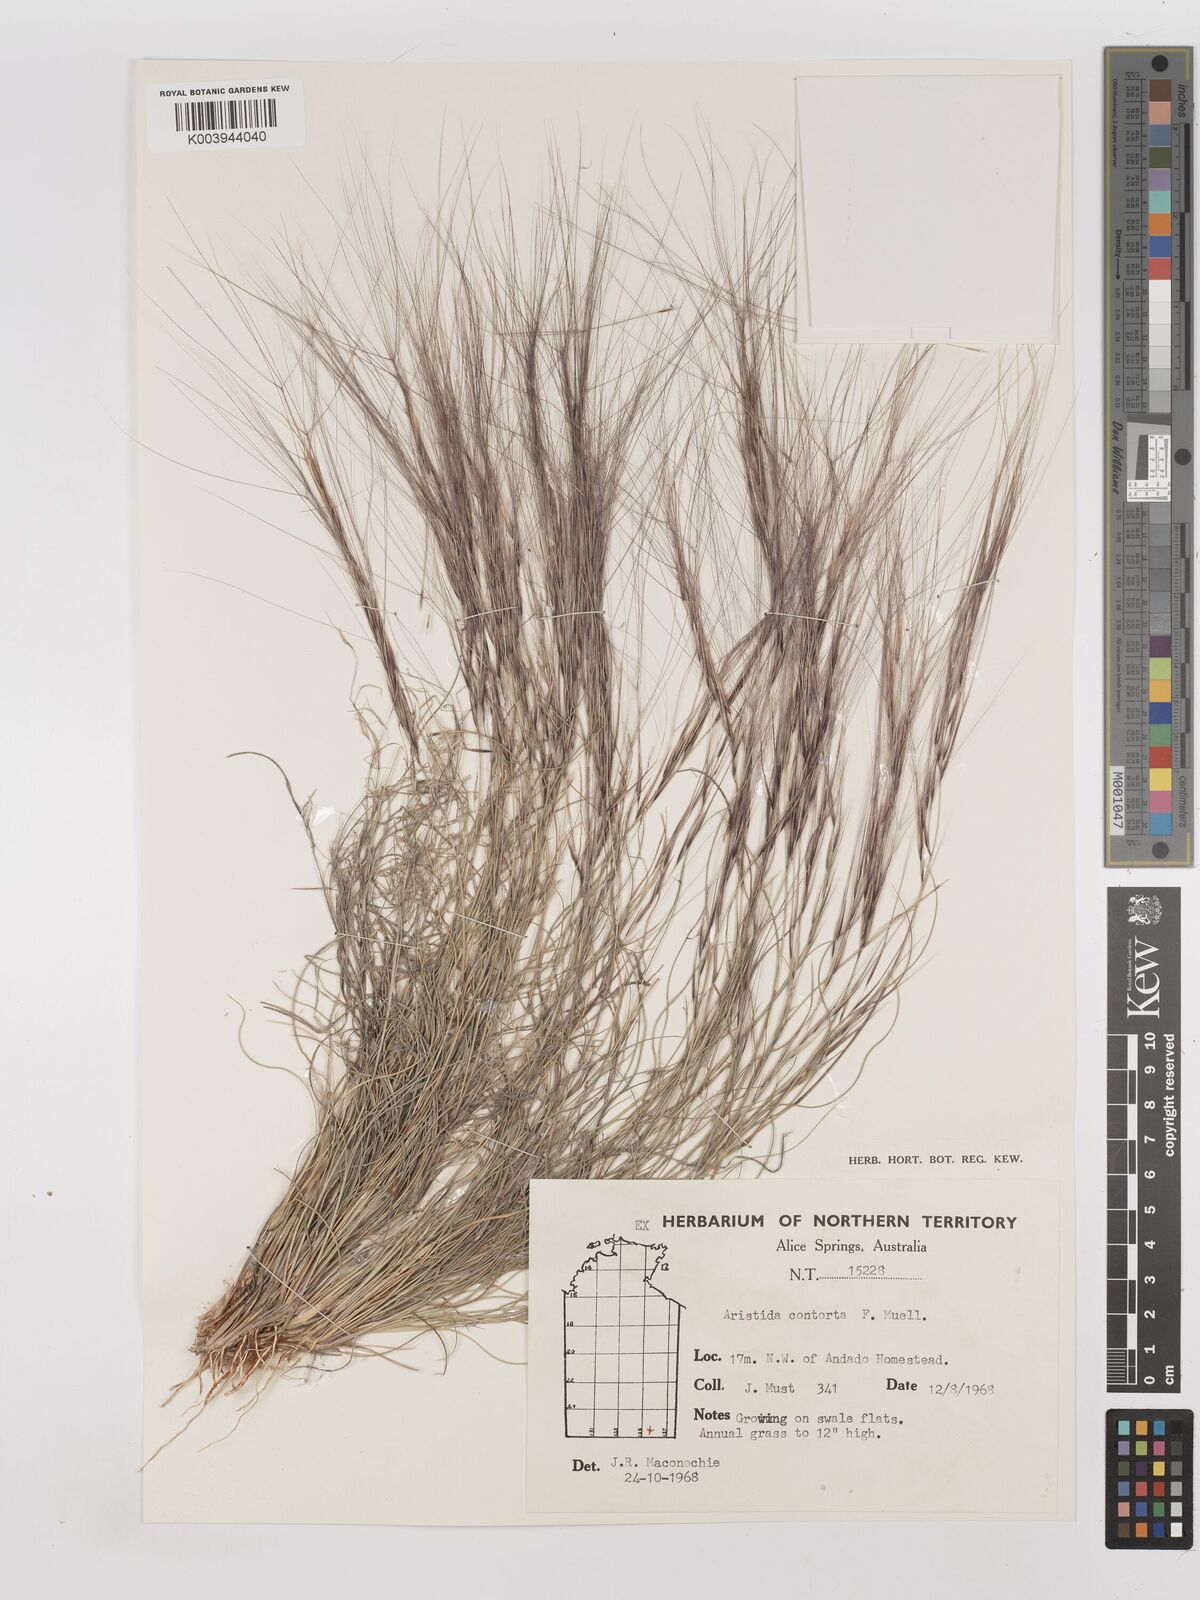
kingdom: Plantae
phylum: Tracheophyta
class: Liliopsida
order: Poales
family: Poaceae
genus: Aristida
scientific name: Aristida contorta
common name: Bunch kerosene grass
